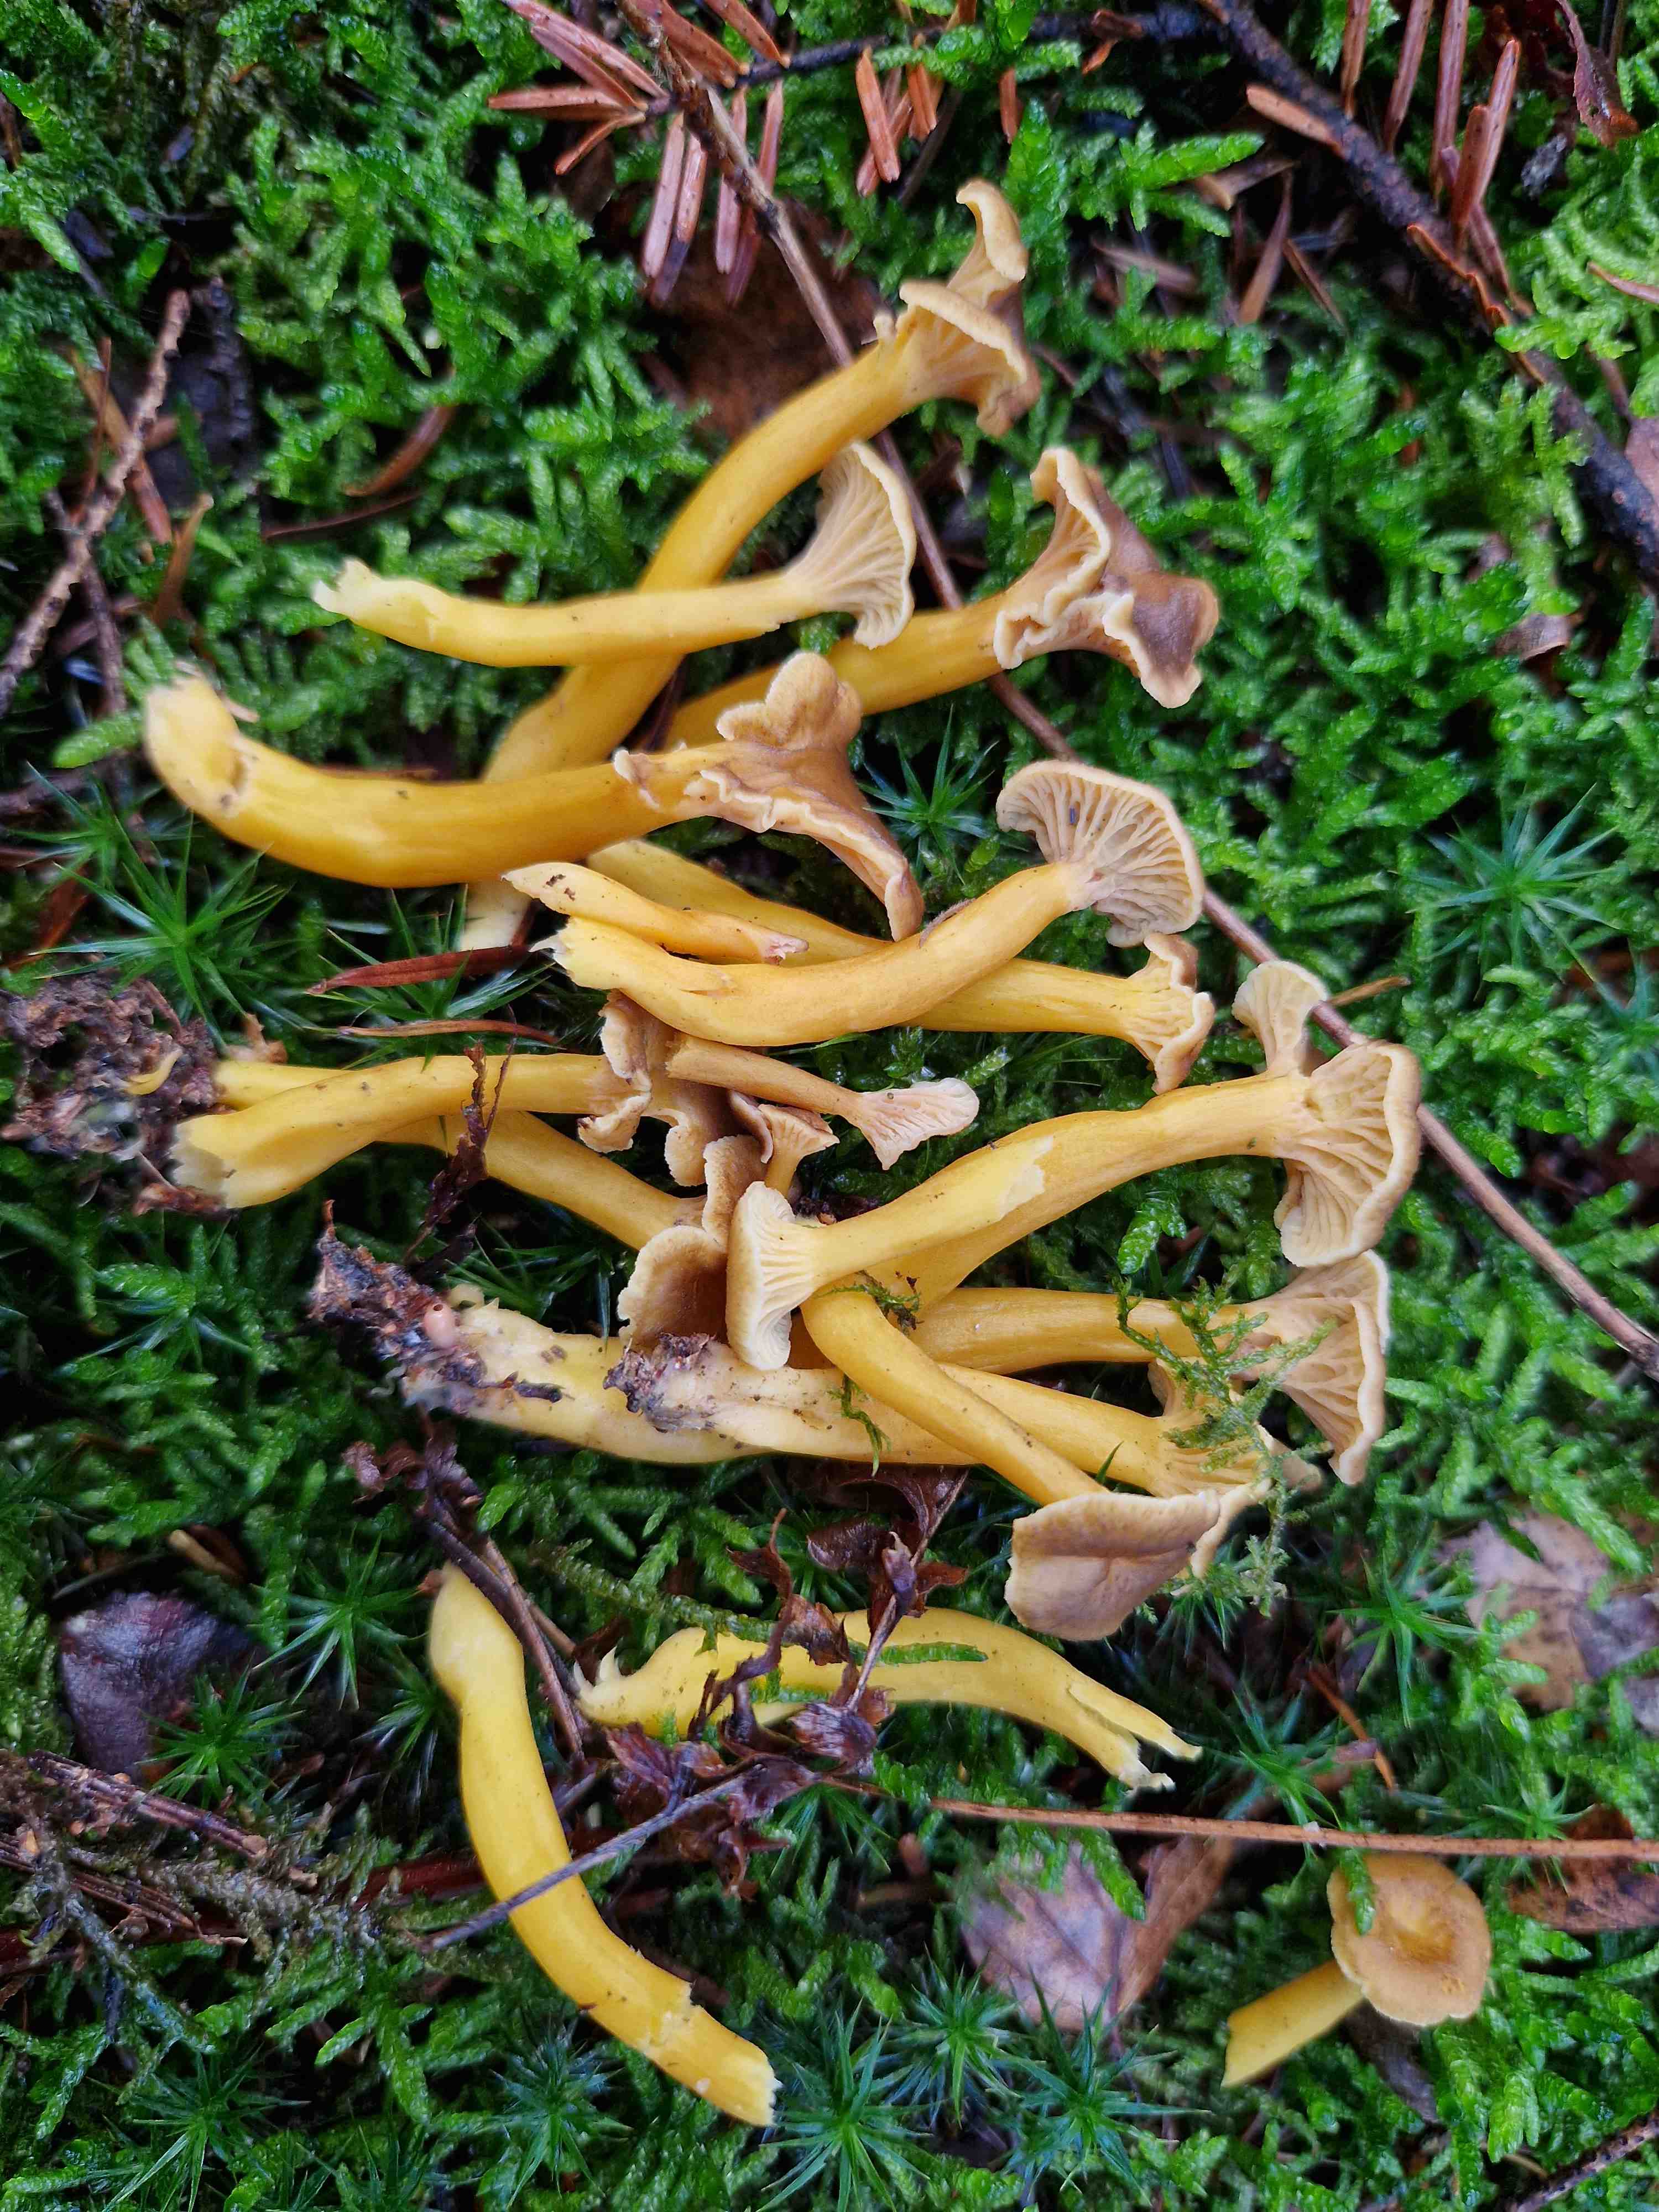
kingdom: Fungi
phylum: Basidiomycota
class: Agaricomycetes
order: Cantharellales
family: Hydnaceae
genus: Craterellus
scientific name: Craterellus tubaeformis
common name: tragt-kantarel
